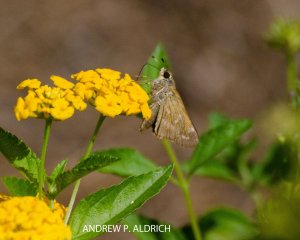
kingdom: Animalia
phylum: Arthropoda
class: Insecta
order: Lepidoptera
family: Hesperiidae
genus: Atalopedes
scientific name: Atalopedes campestris
